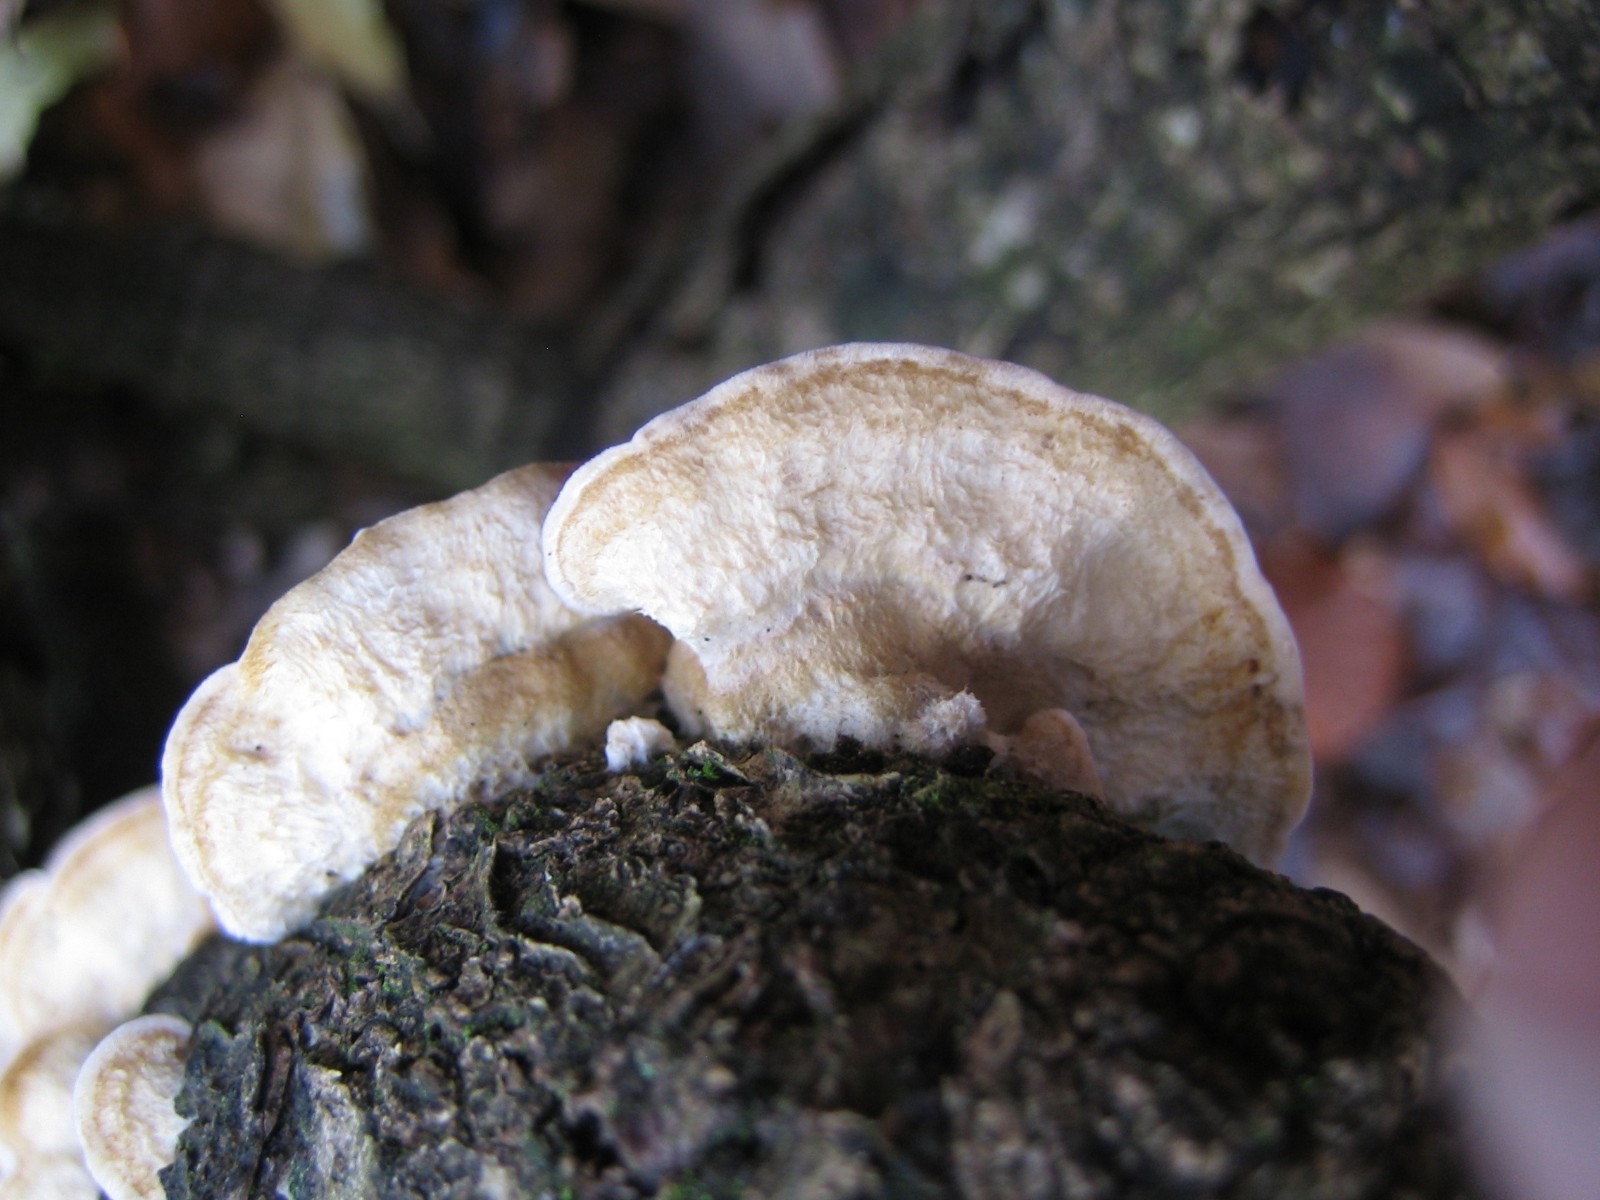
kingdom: Fungi
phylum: Basidiomycota
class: Agaricomycetes
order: Russulales
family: Stereaceae
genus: Stereum
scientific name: Stereum hirsutum
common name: håret lædersvamp
